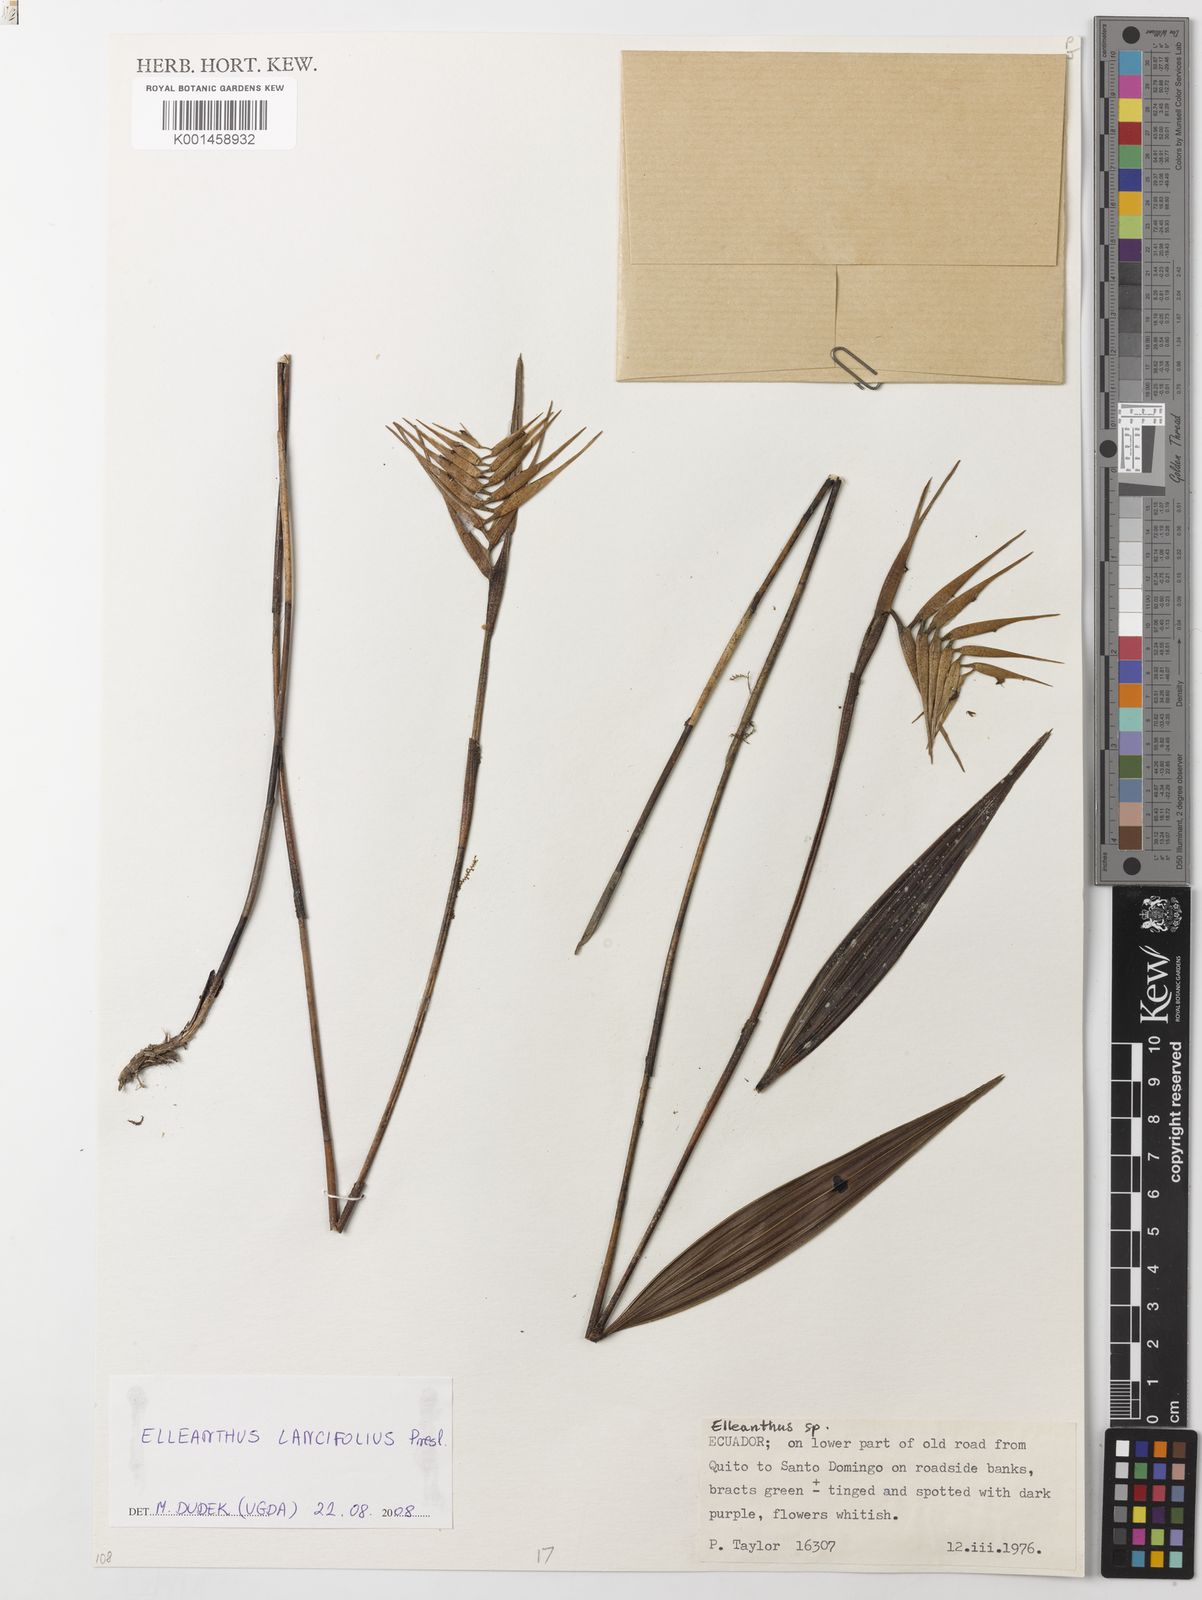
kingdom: Plantae
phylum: Tracheophyta
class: Liliopsida
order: Asparagales
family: Orchidaceae
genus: Elleanthus
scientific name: Elleanthus lancifolius
